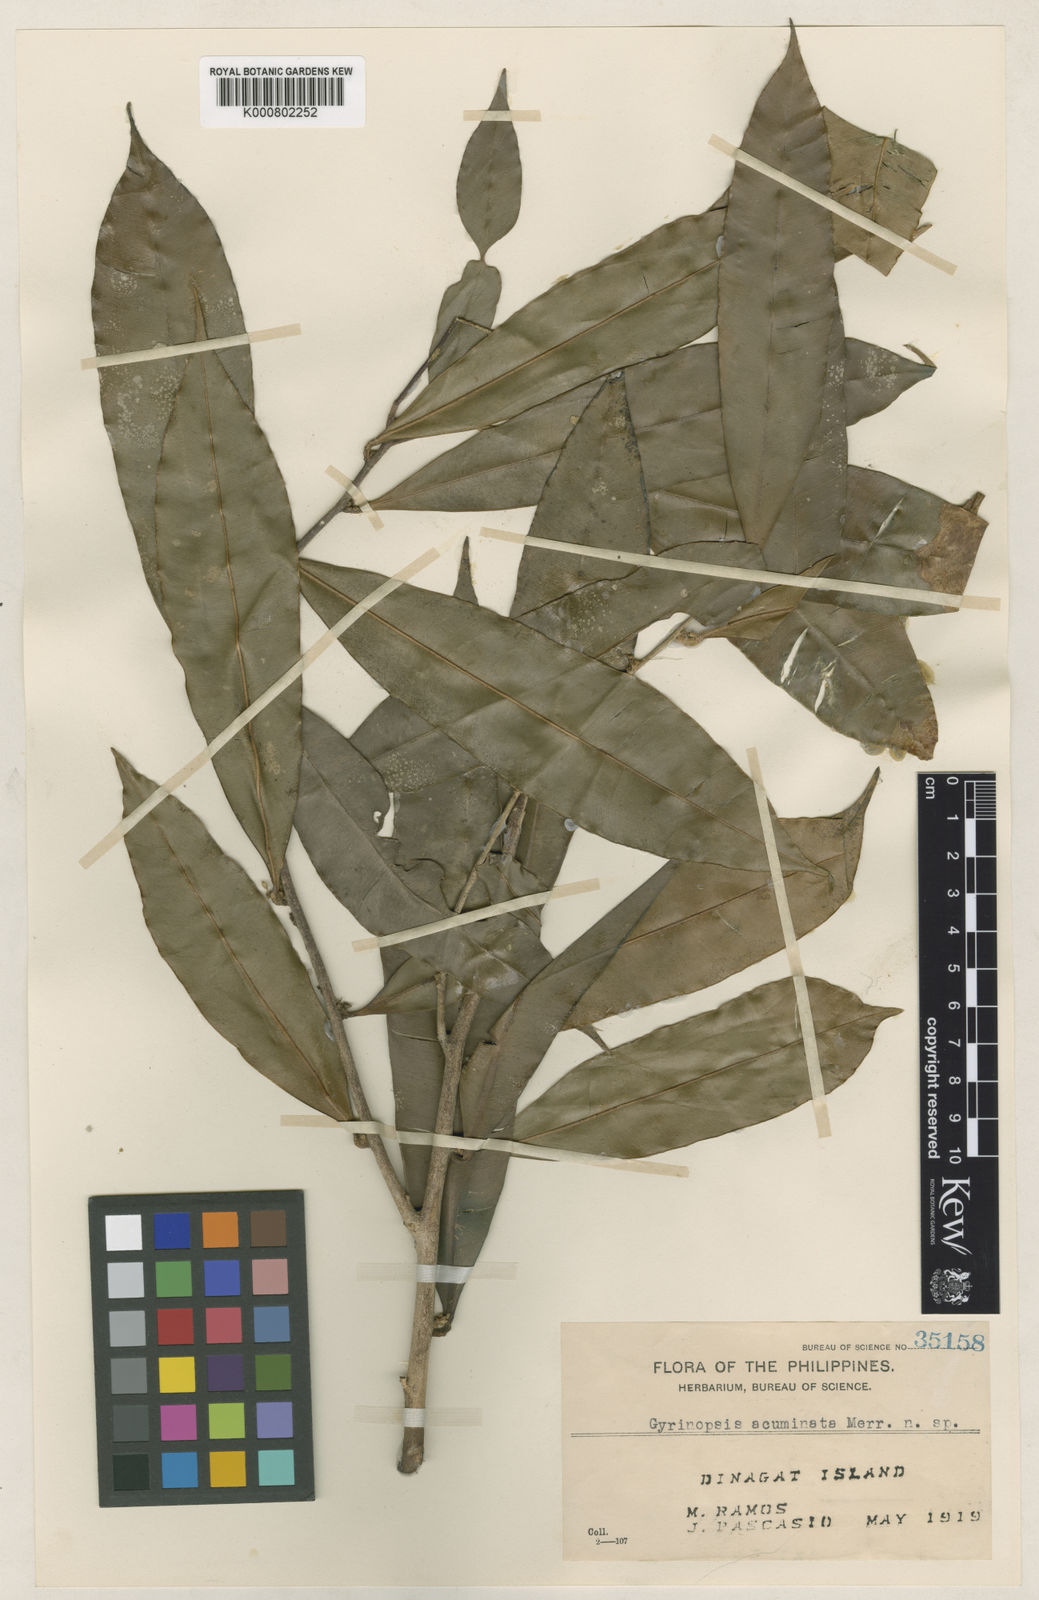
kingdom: Plantae
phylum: Tracheophyta
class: Magnoliopsida
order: Malvales
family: Thymelaeaceae
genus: Aquilaria
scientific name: Aquilaria
